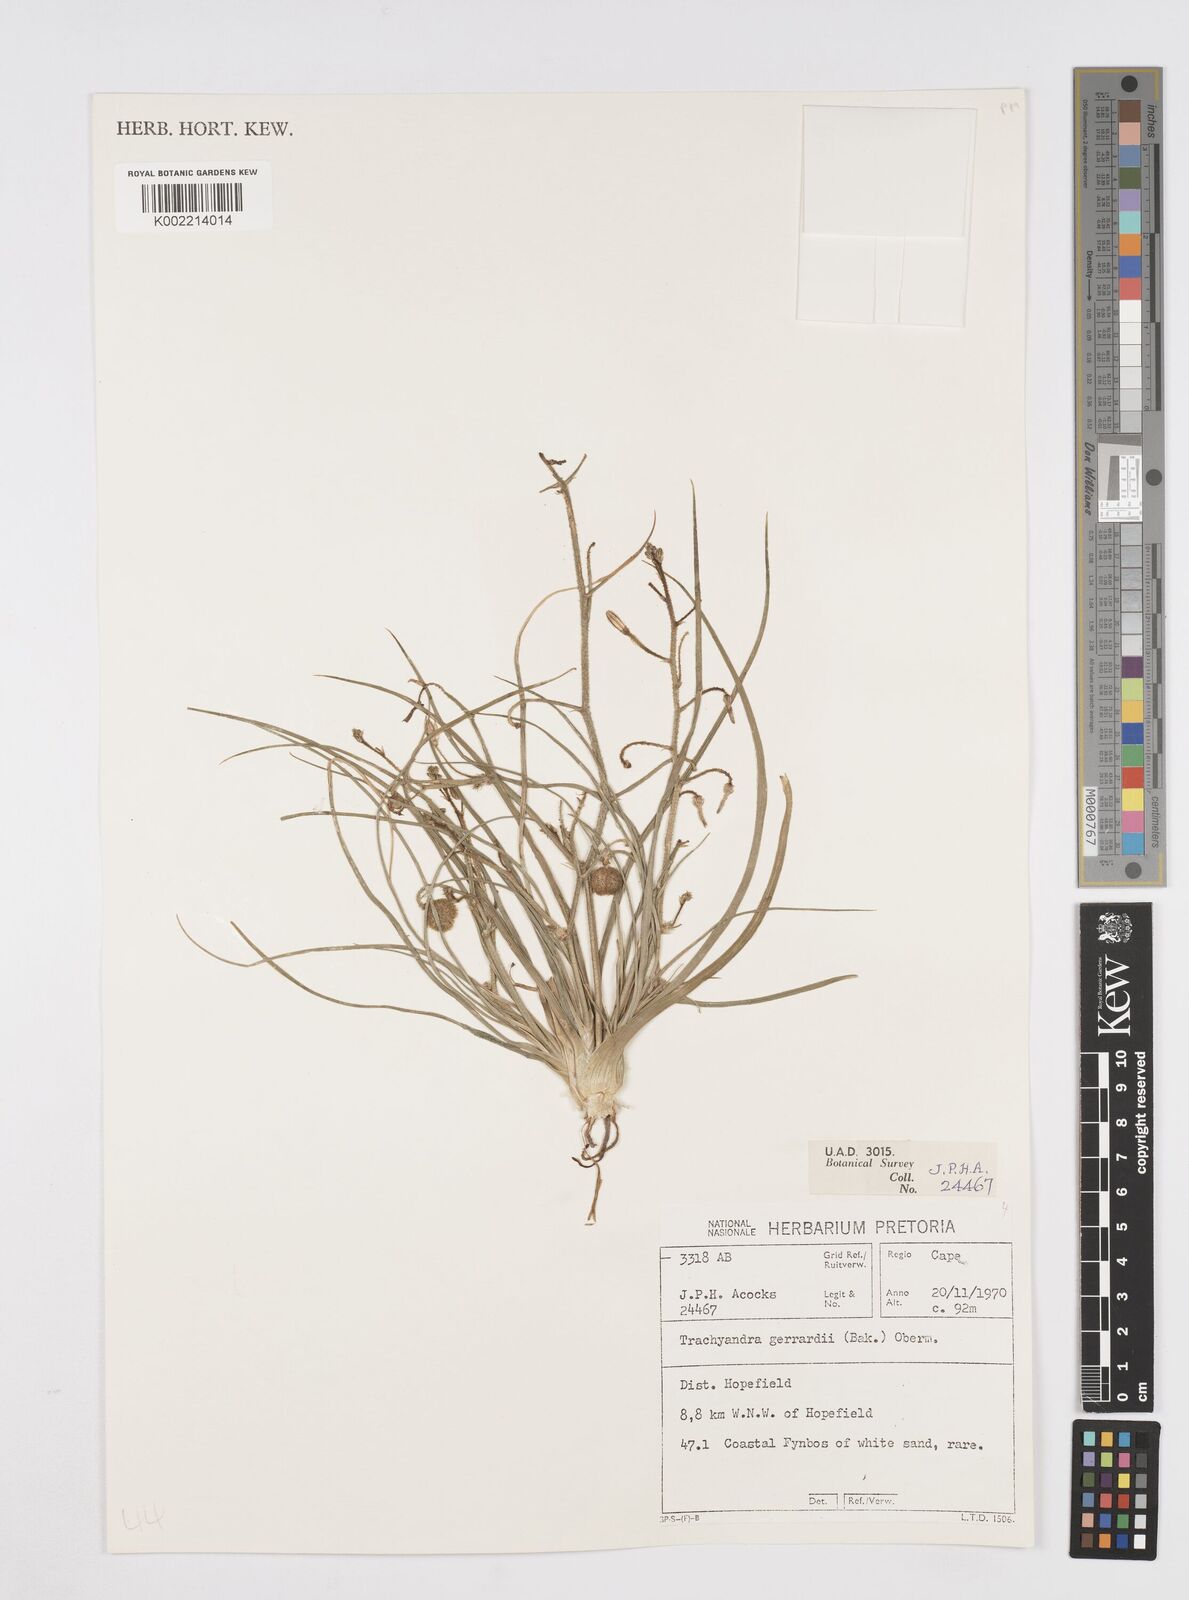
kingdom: Plantae
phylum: Tracheophyta
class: Liliopsida
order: Asparagales
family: Asphodelaceae
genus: Trachyandra
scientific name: Trachyandra gerrardii
